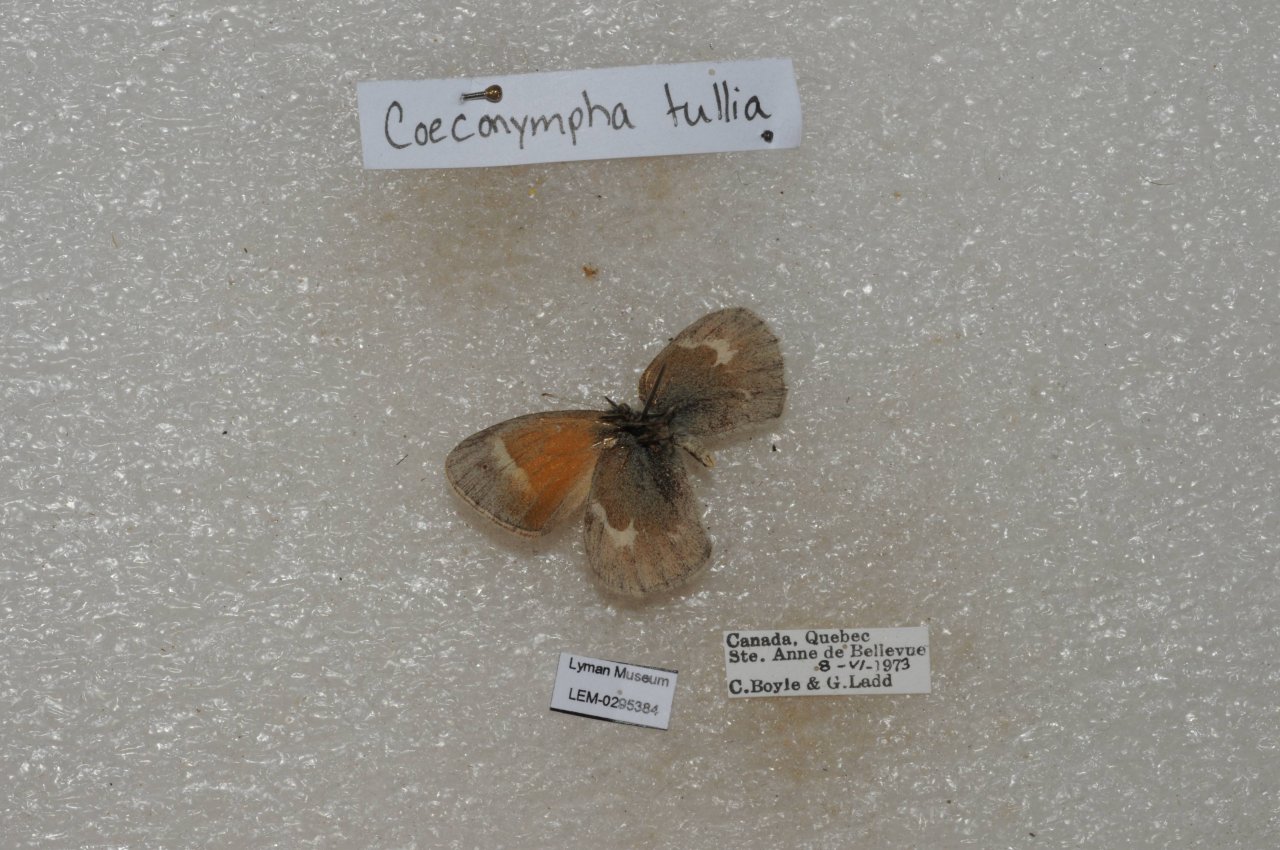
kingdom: Animalia
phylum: Arthropoda
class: Insecta
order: Lepidoptera
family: Nymphalidae
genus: Coenonympha
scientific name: Coenonympha tullia
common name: Large Heath
